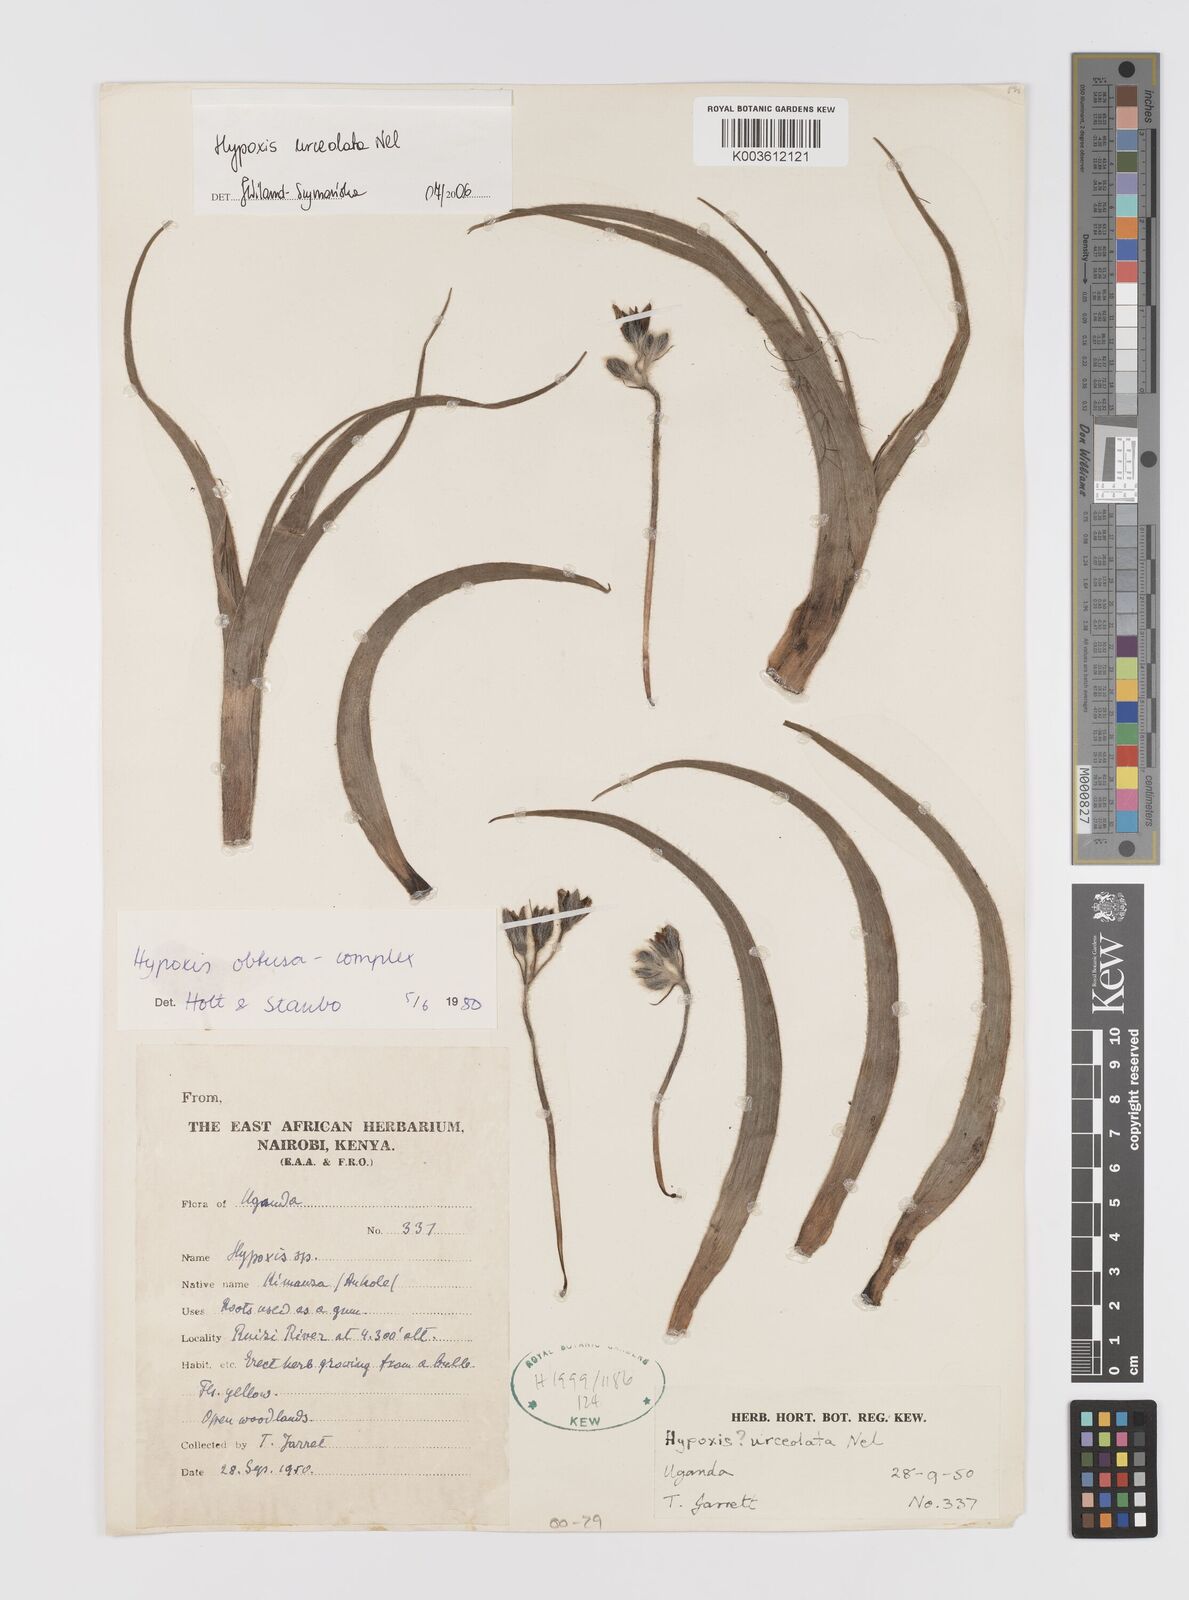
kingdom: Plantae
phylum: Tracheophyta
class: Liliopsida
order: Asparagales
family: Hypoxidaceae
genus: Hypoxis
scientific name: Hypoxis urceolata
